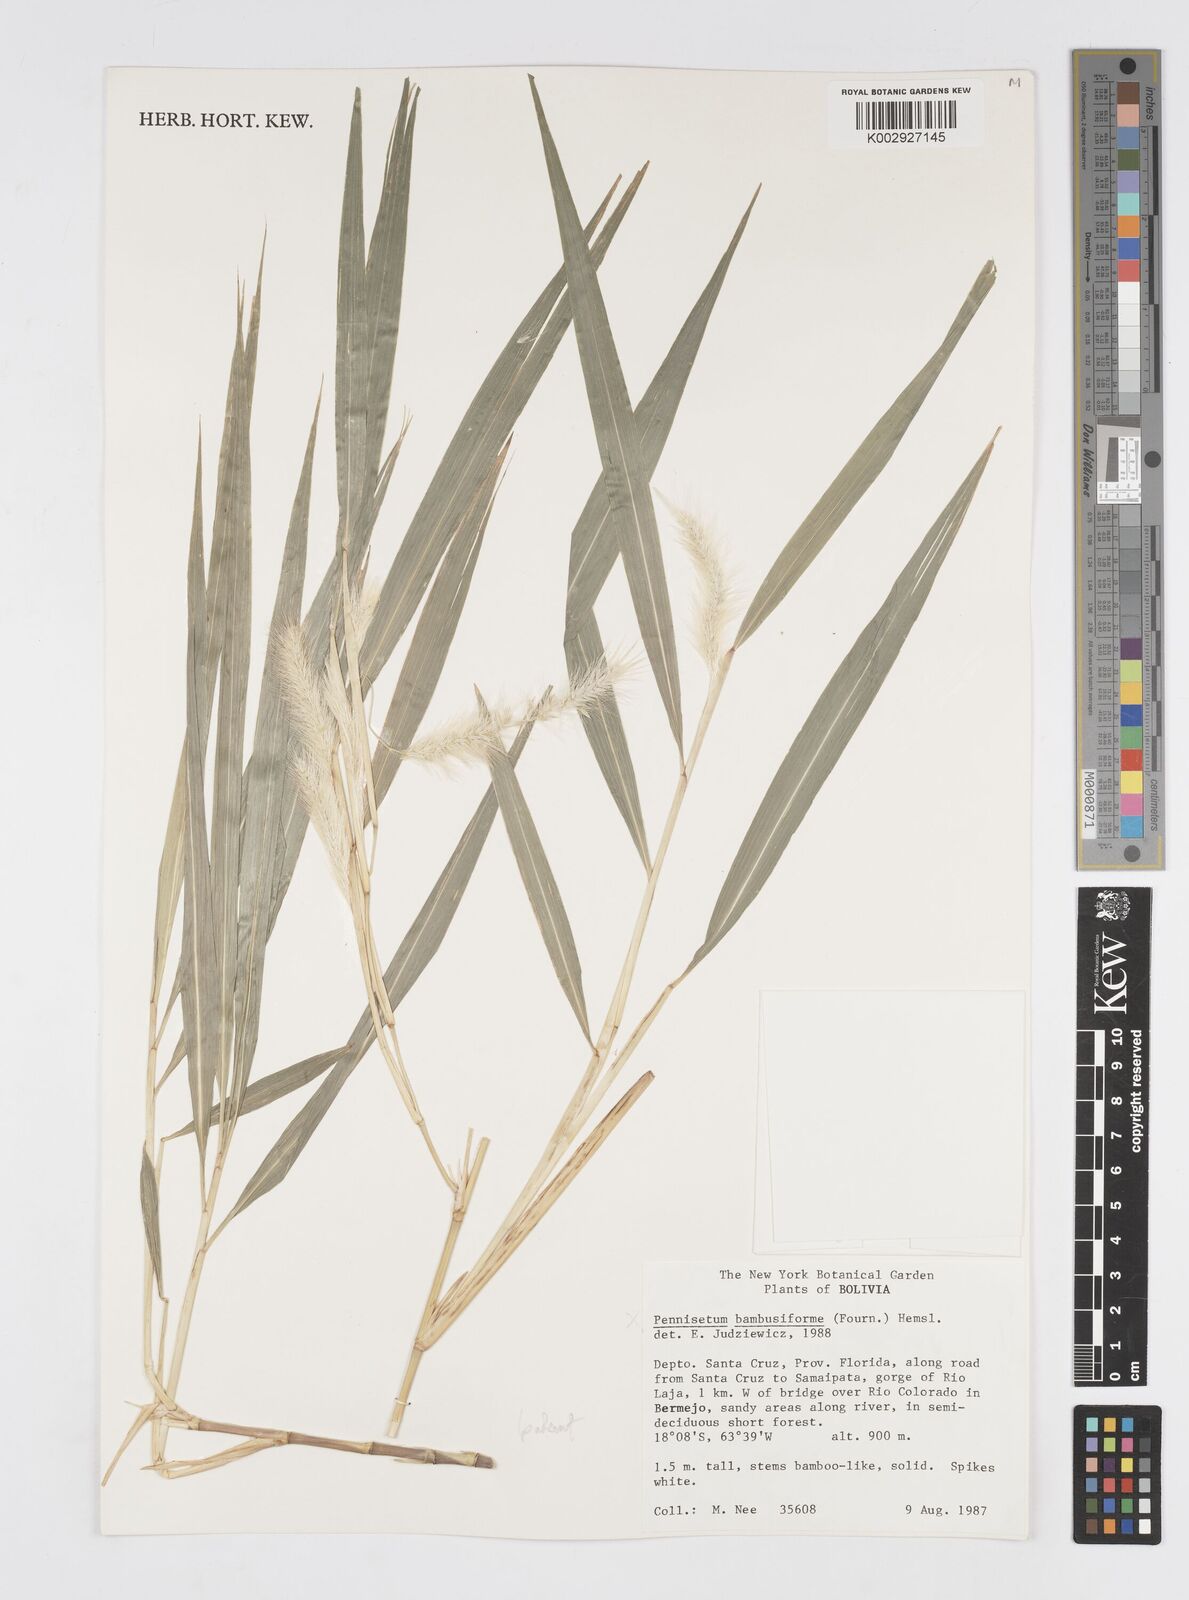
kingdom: Plantae
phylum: Tracheophyta
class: Liliopsida
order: Poales
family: Poaceae
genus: Cenchrus
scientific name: Cenchrus tristachyus
